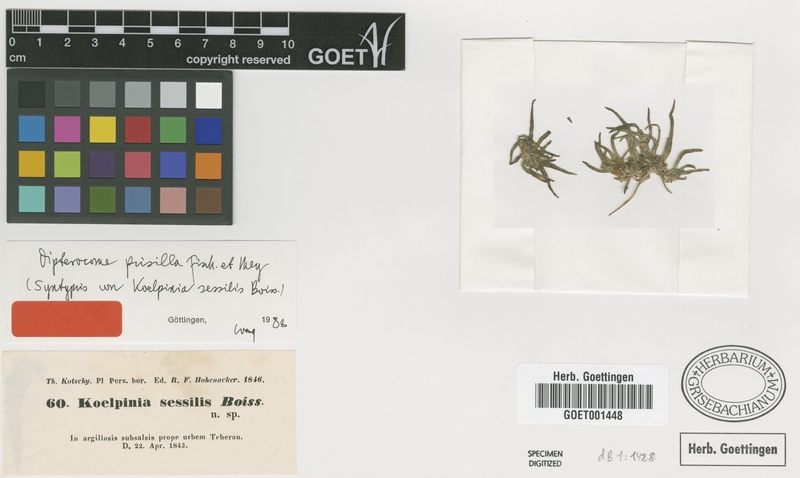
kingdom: Plantae
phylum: Tracheophyta
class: Magnoliopsida
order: Asterales
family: Asteraceae
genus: Dipterocome
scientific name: Dipterocome pusilla
